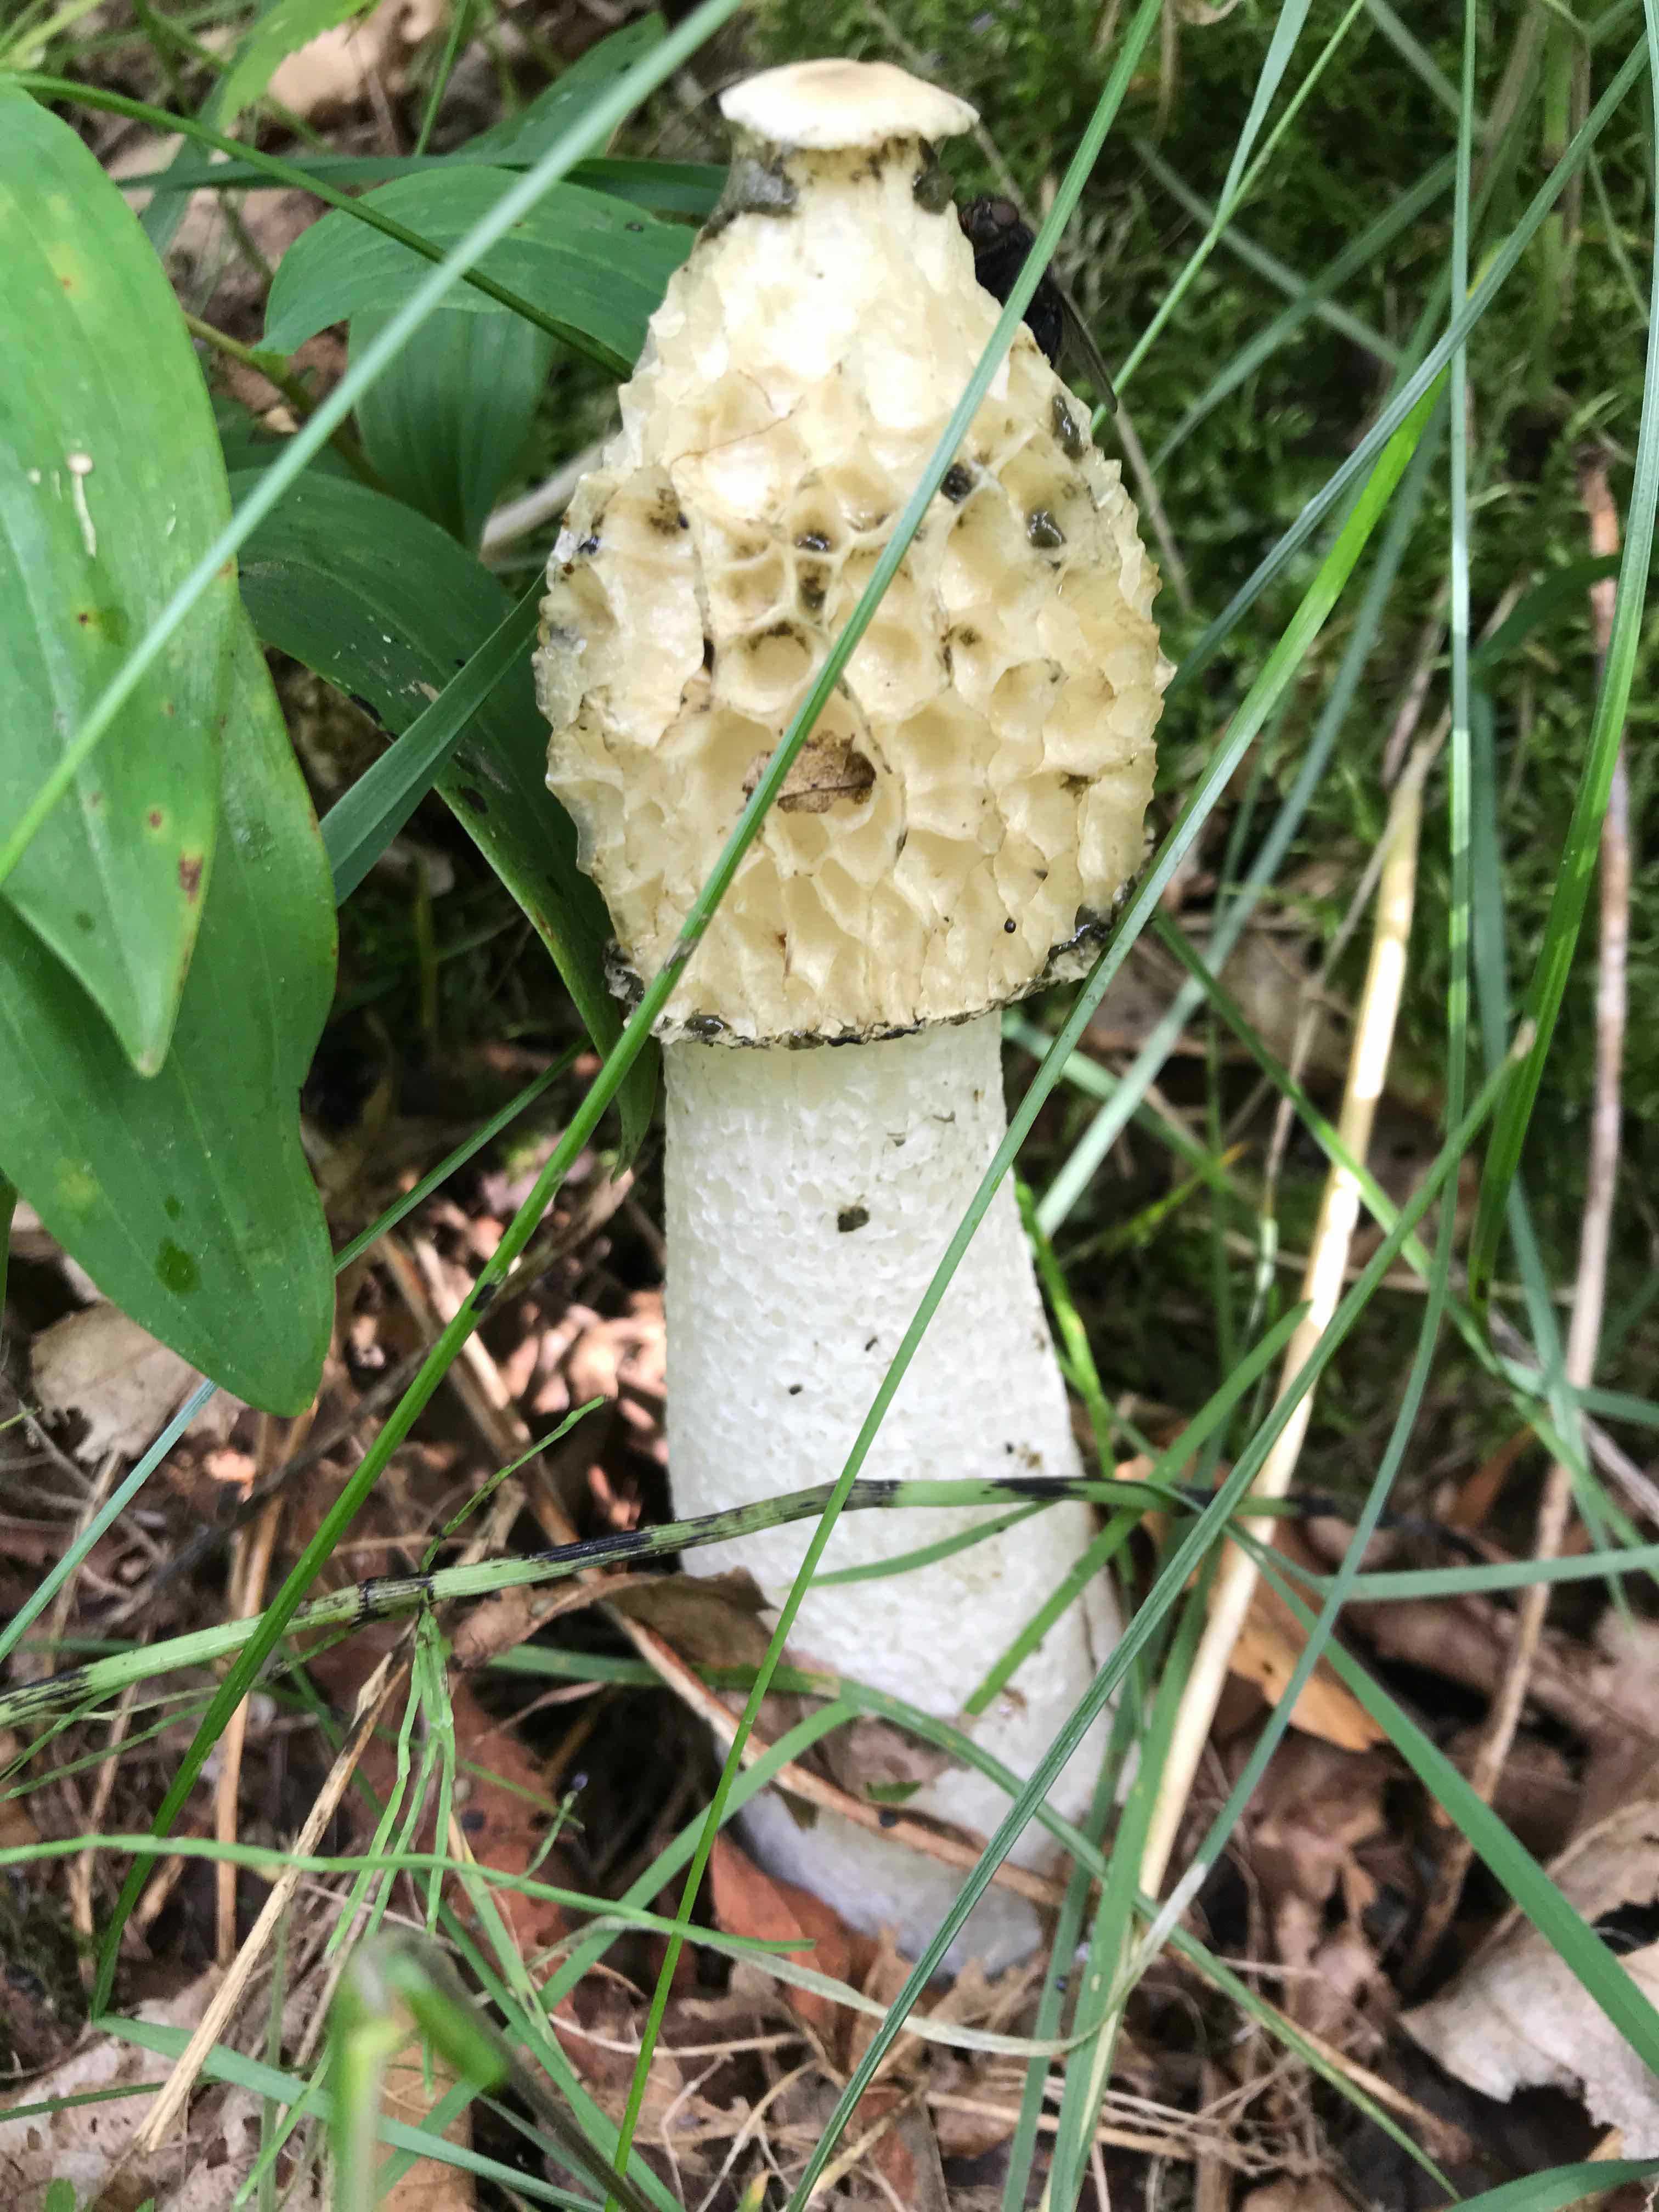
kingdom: Fungi
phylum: Basidiomycota
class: Agaricomycetes
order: Phallales
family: Phallaceae
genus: Phallus
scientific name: Phallus impudicus
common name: almindelig stinksvamp
